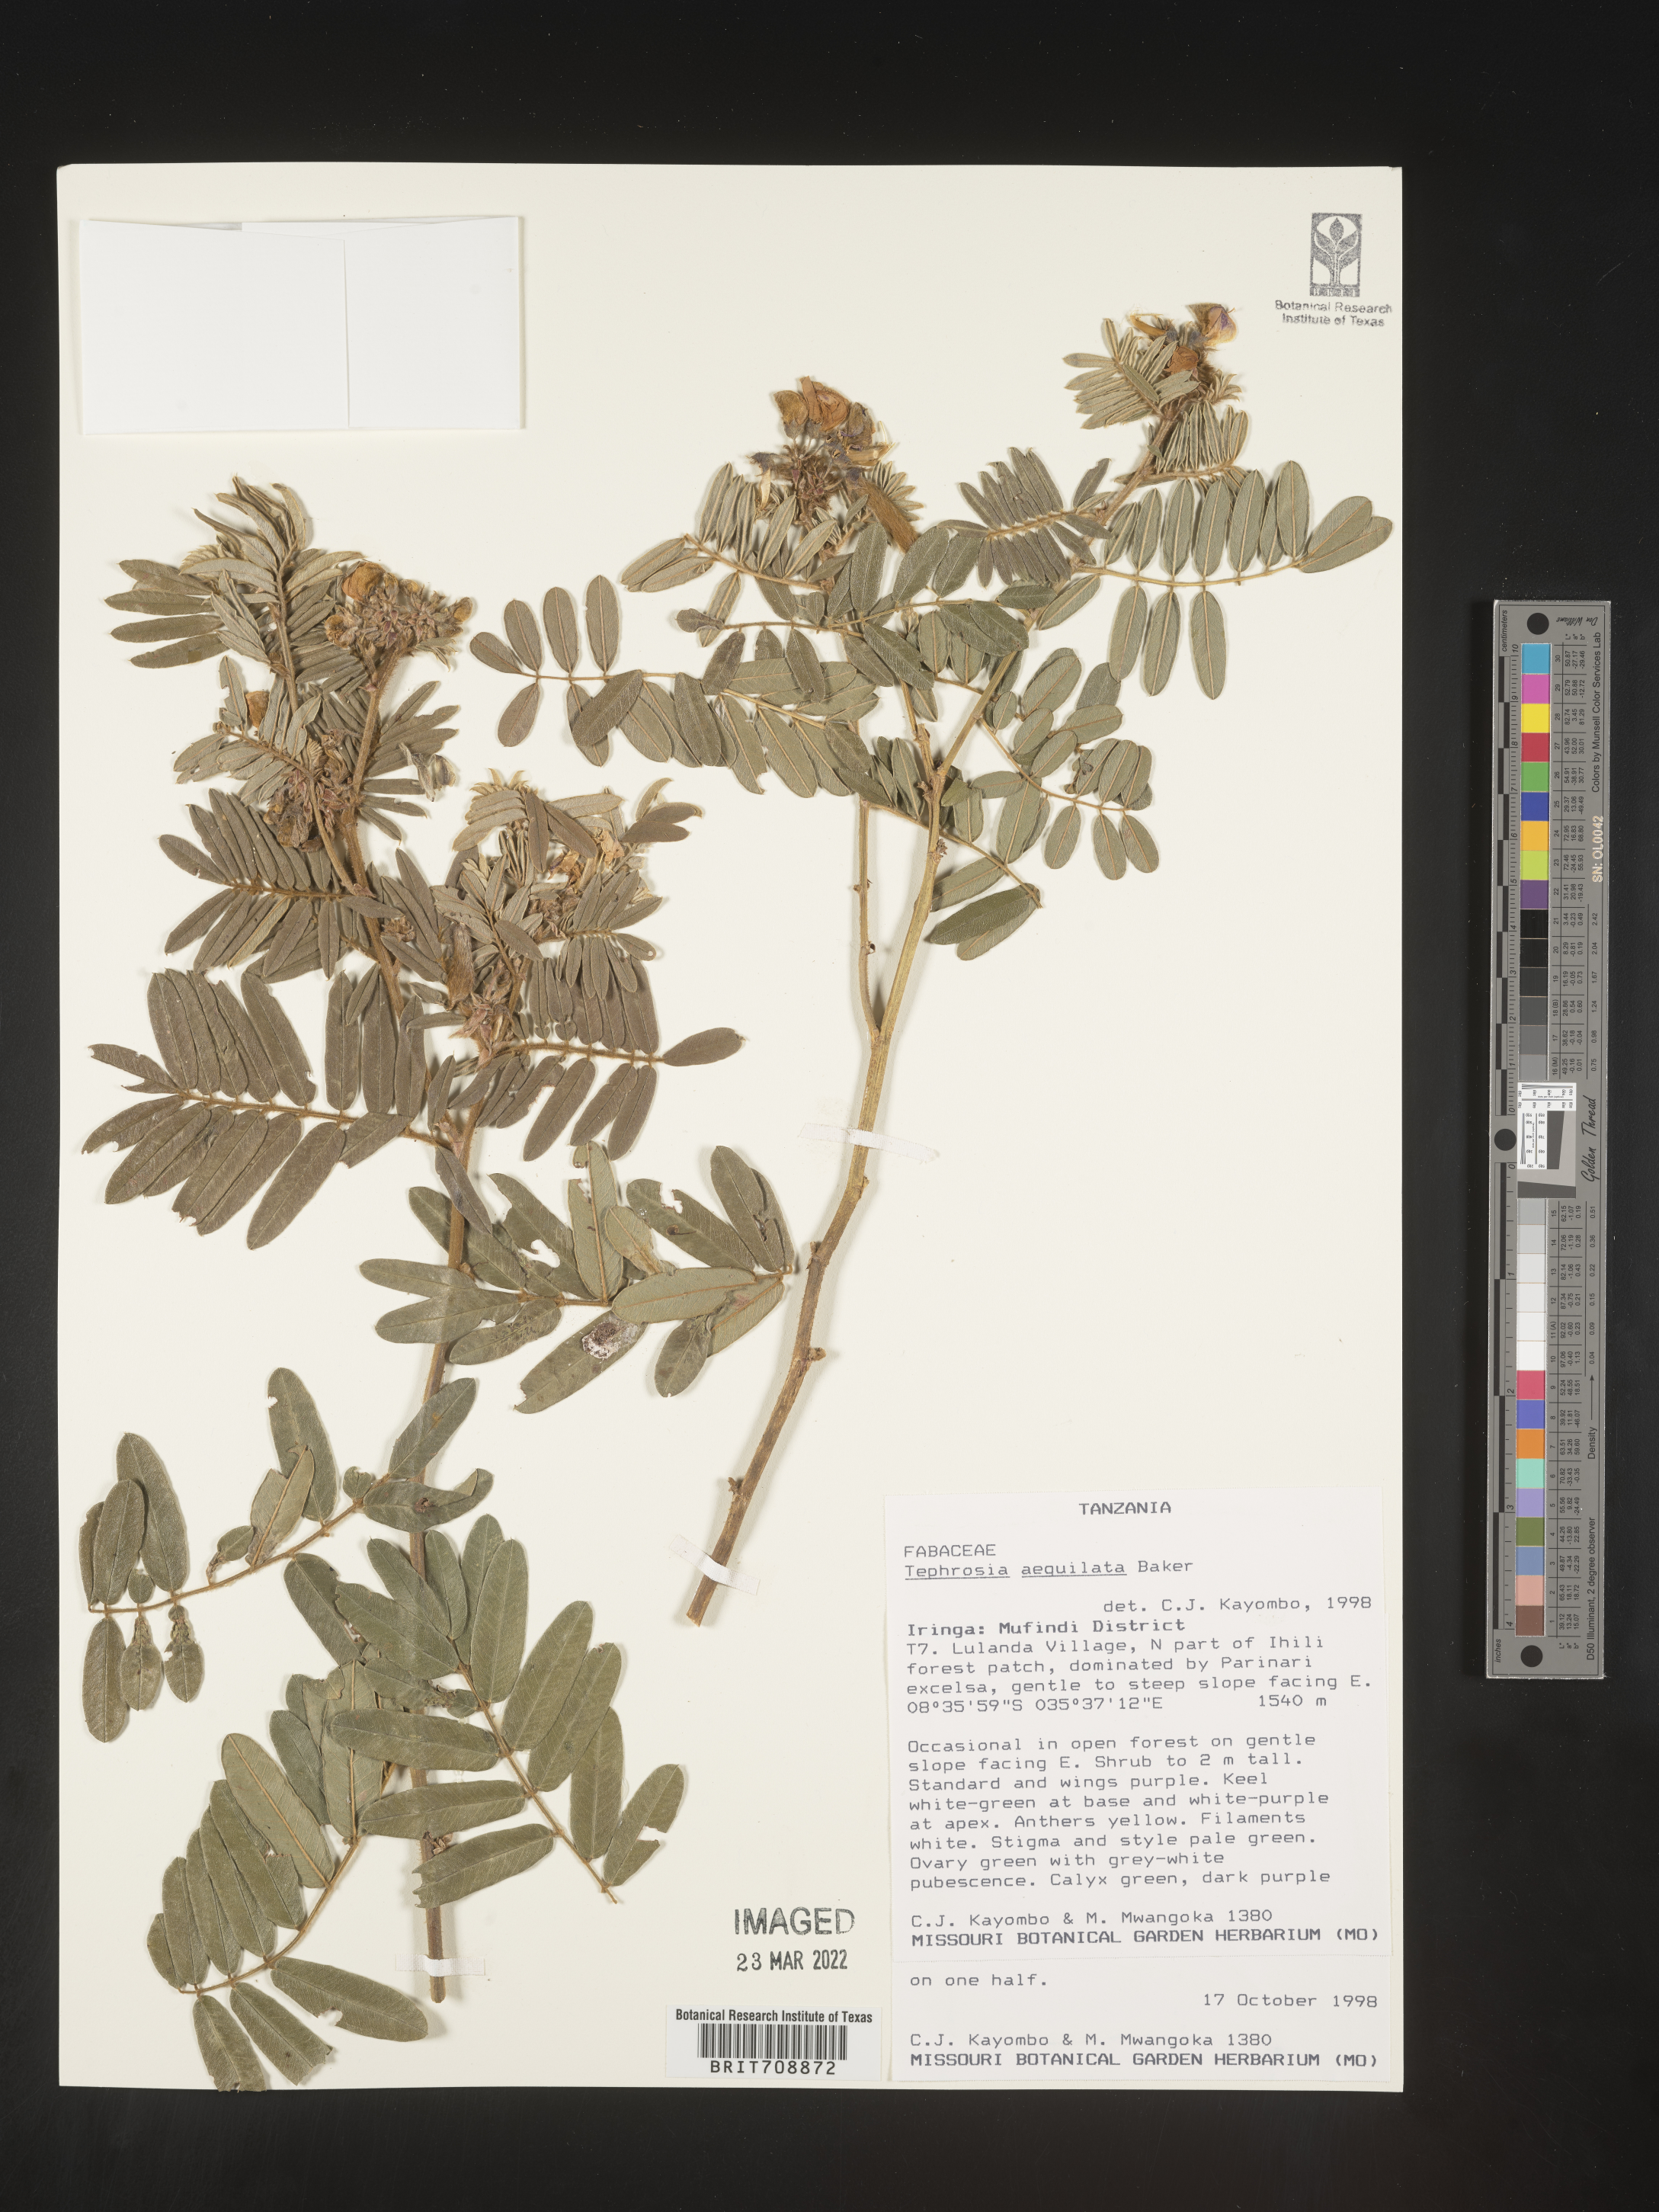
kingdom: Plantae
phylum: Tracheophyta
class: Magnoliopsida
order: Fabales
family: Fabaceae
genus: Tephrosia
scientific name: Tephrosia
